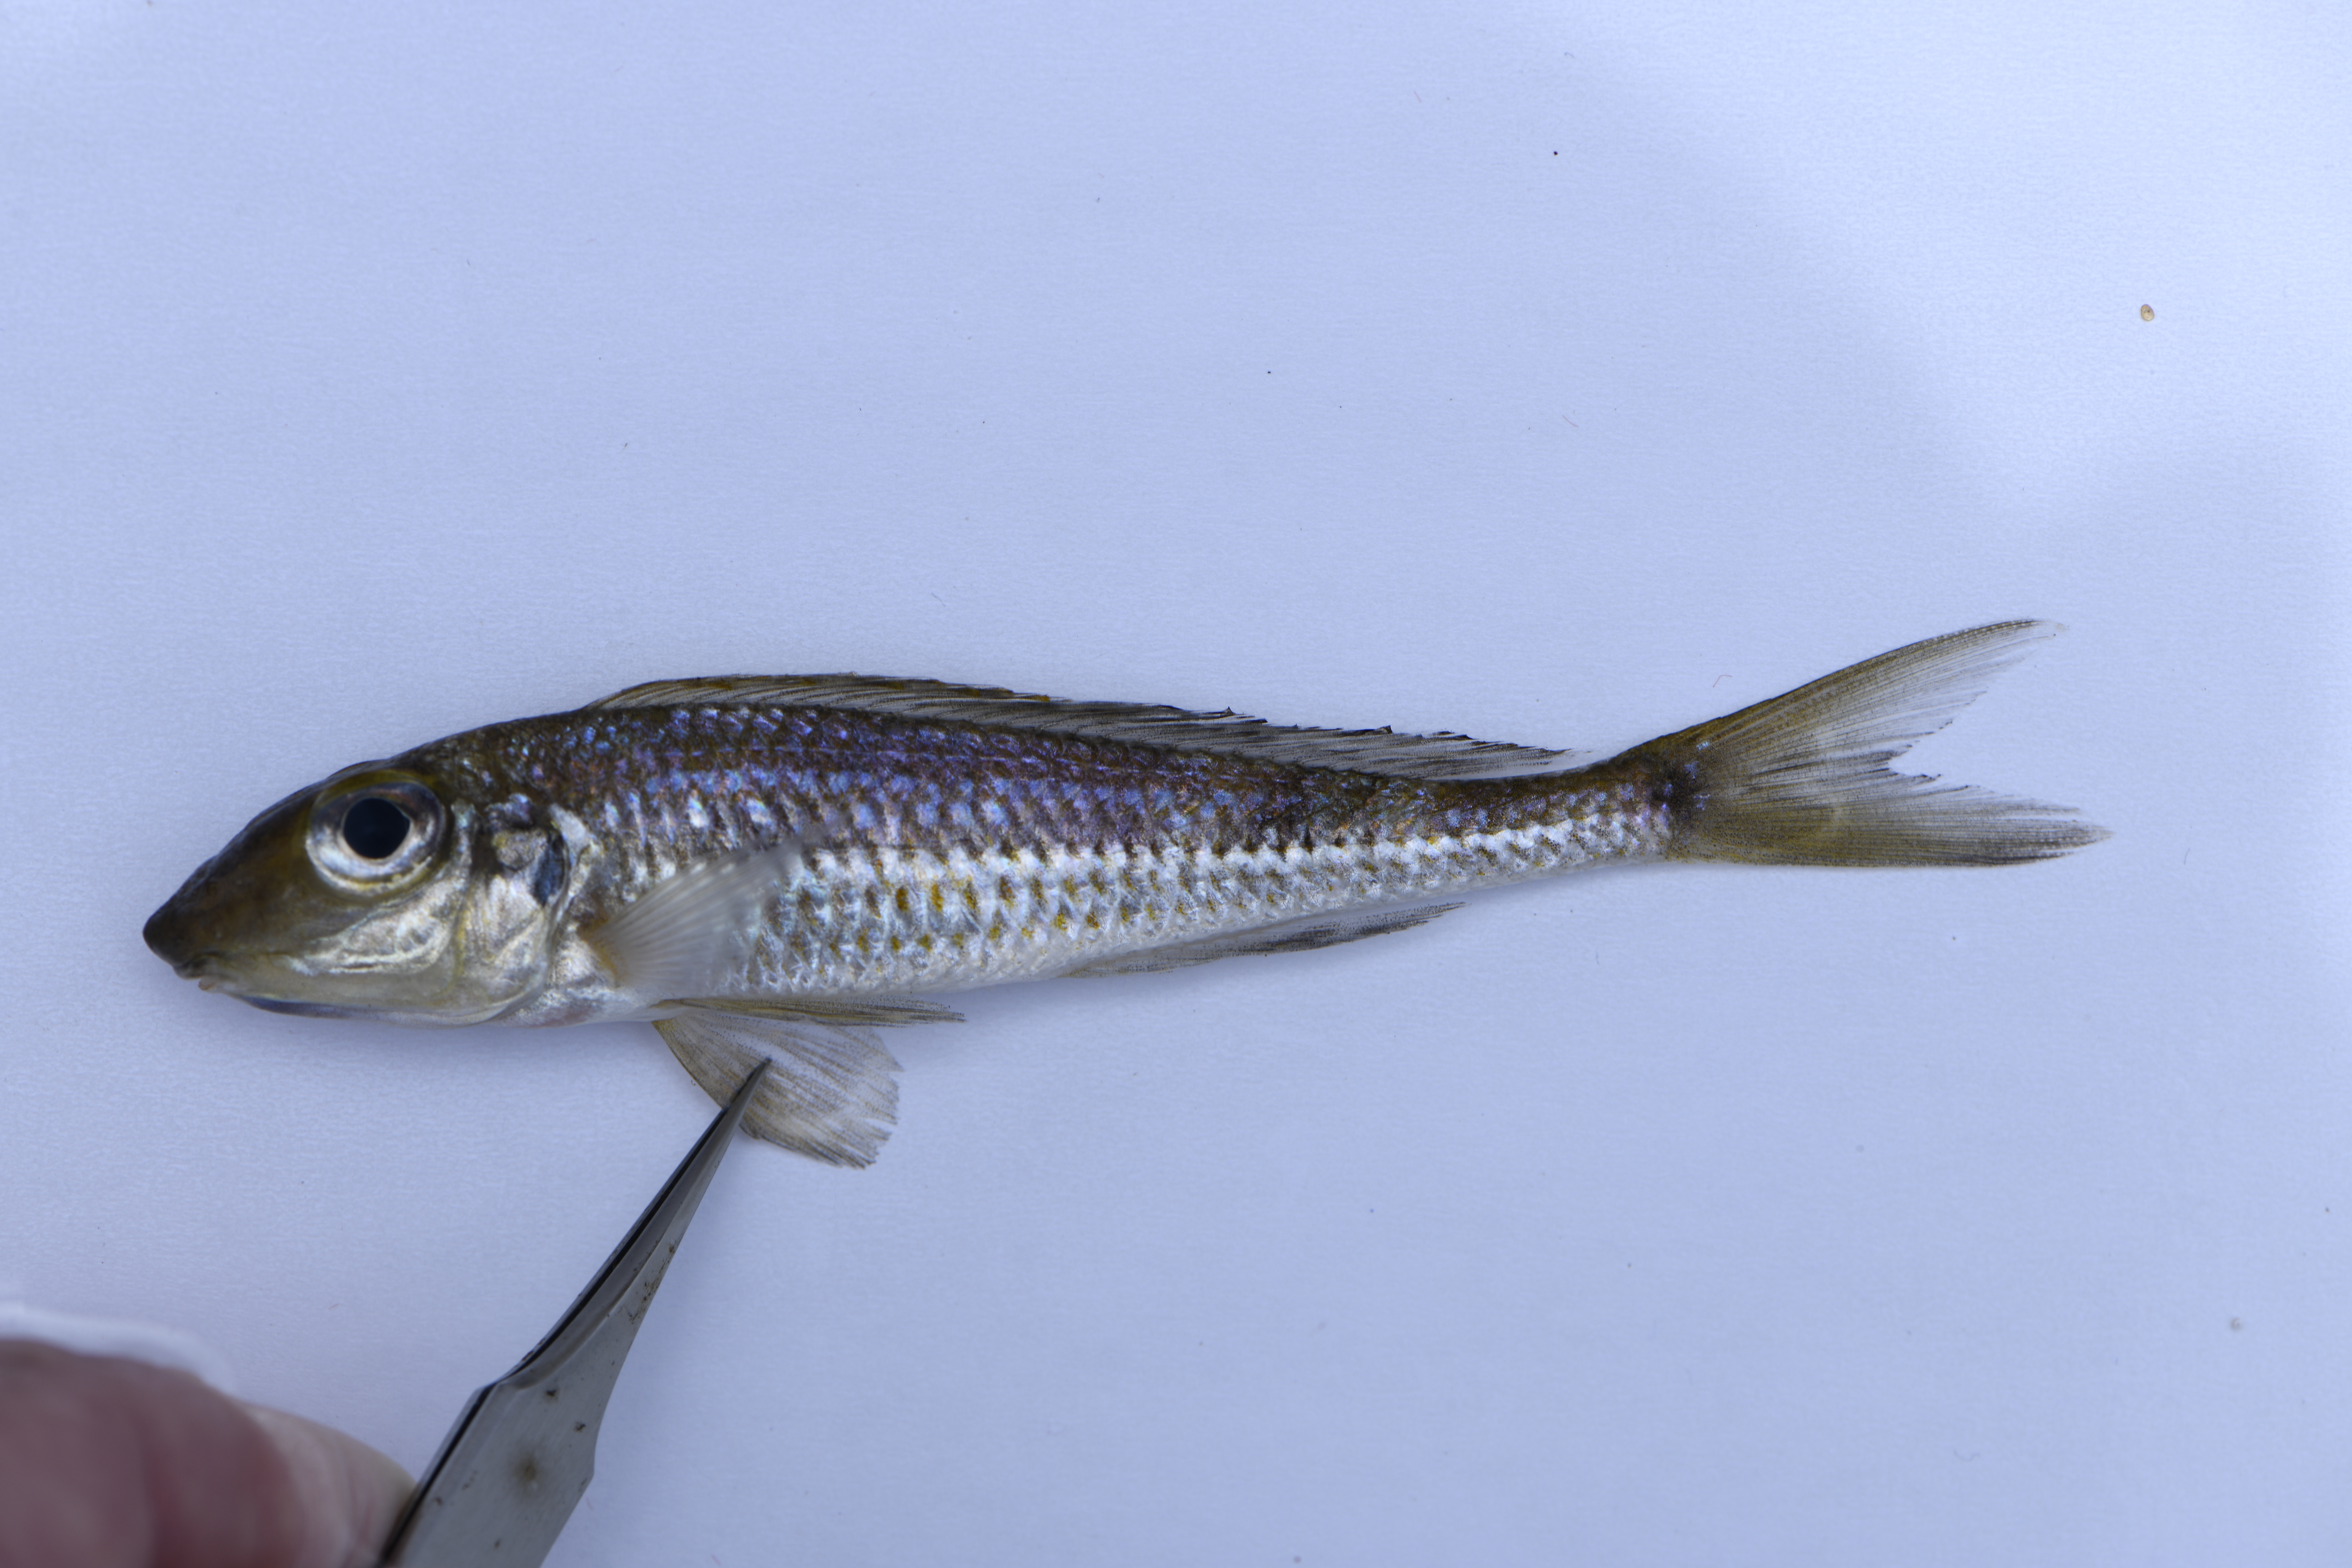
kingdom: Animalia
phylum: Chordata
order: Perciformes
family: Cichlidae
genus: Xenotilapia
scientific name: Xenotilapia leptura
